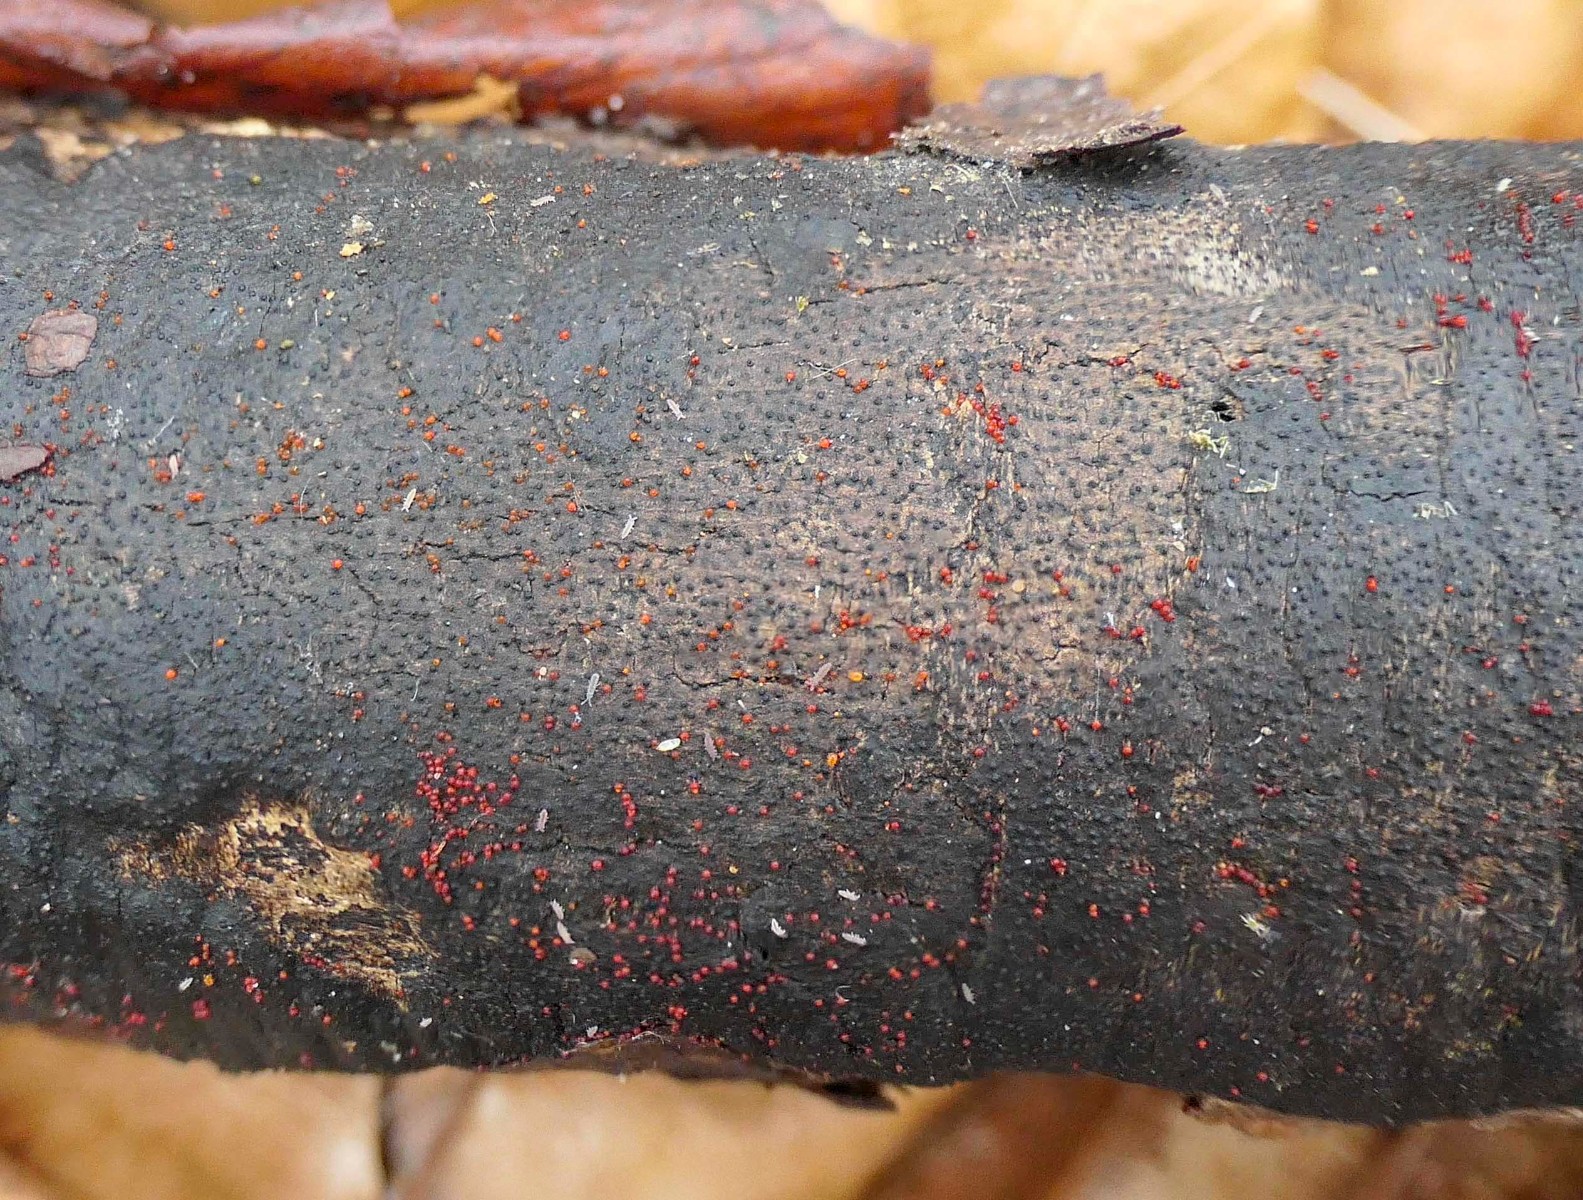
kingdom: Fungi
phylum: Ascomycota
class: Sordariomycetes
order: Xylariales
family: Diatrypaceae
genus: Diatrype
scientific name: Diatrype decorticata
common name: barksprænger-kulskorpe
